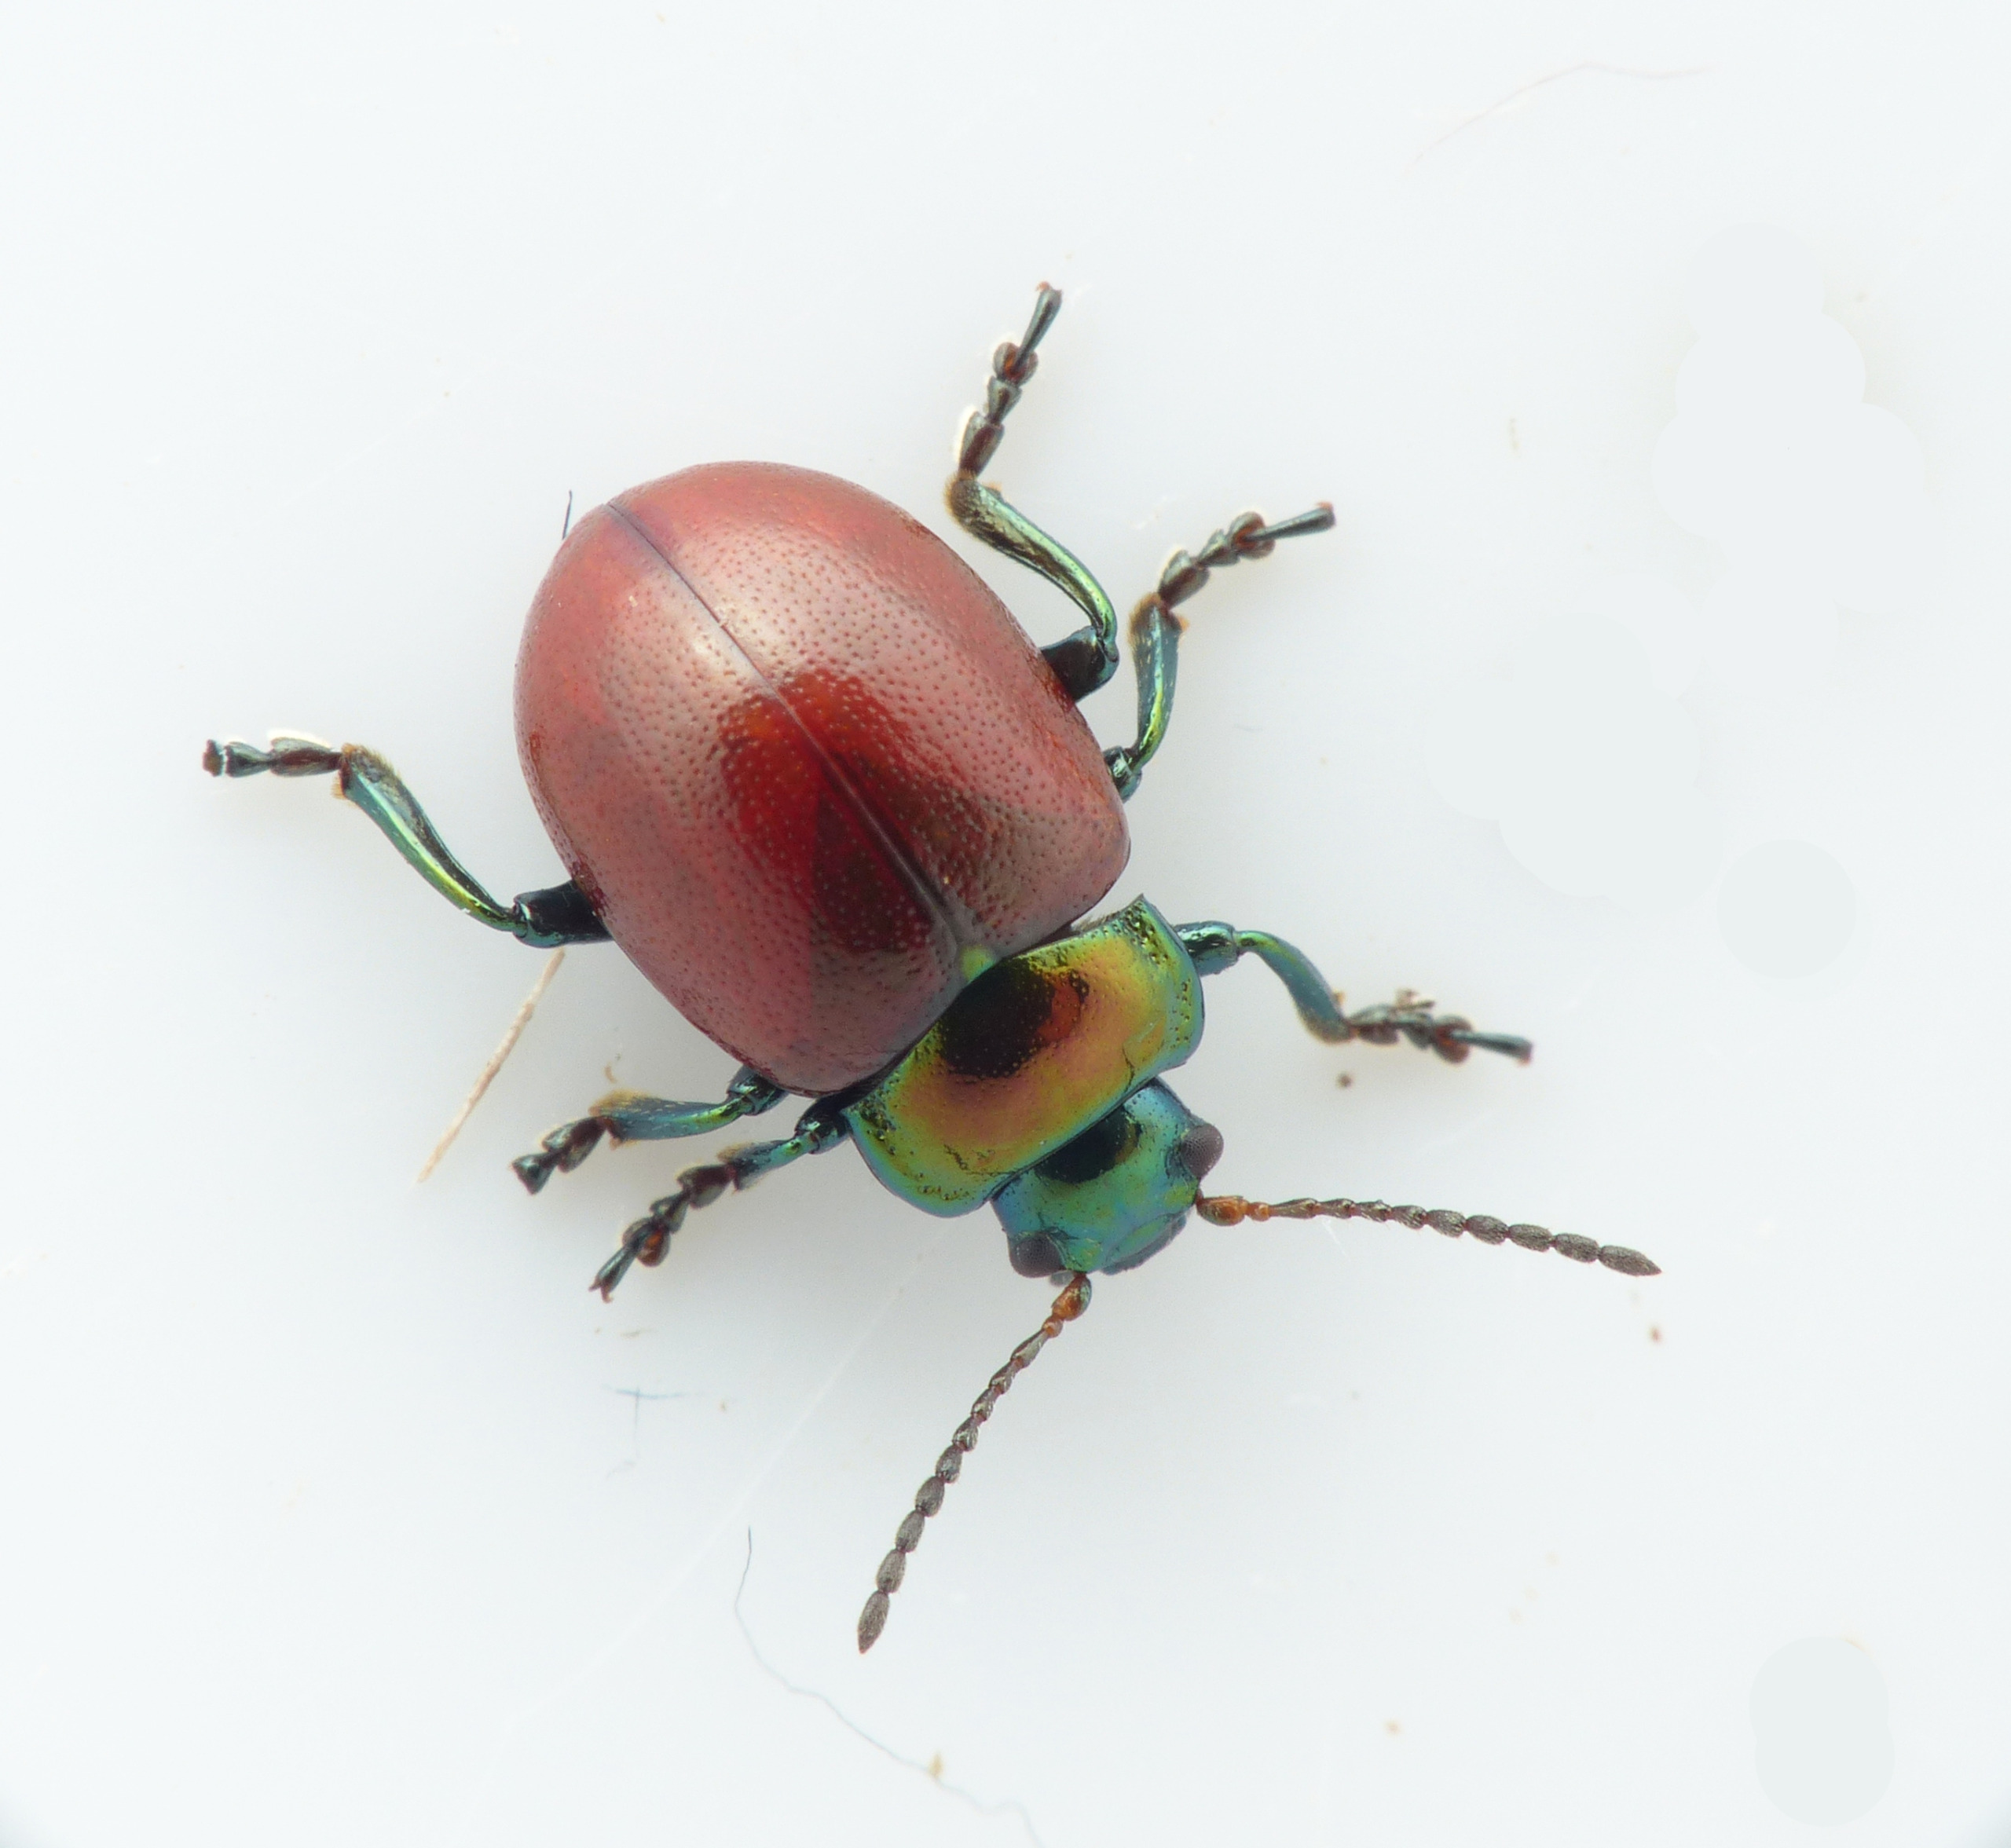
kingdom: Animalia
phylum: Arthropoda
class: Insecta
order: Coleoptera
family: Chrysomelidae
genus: Chrysomela
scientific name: Chrysomela polita
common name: Forskelligfarvet guldbille
